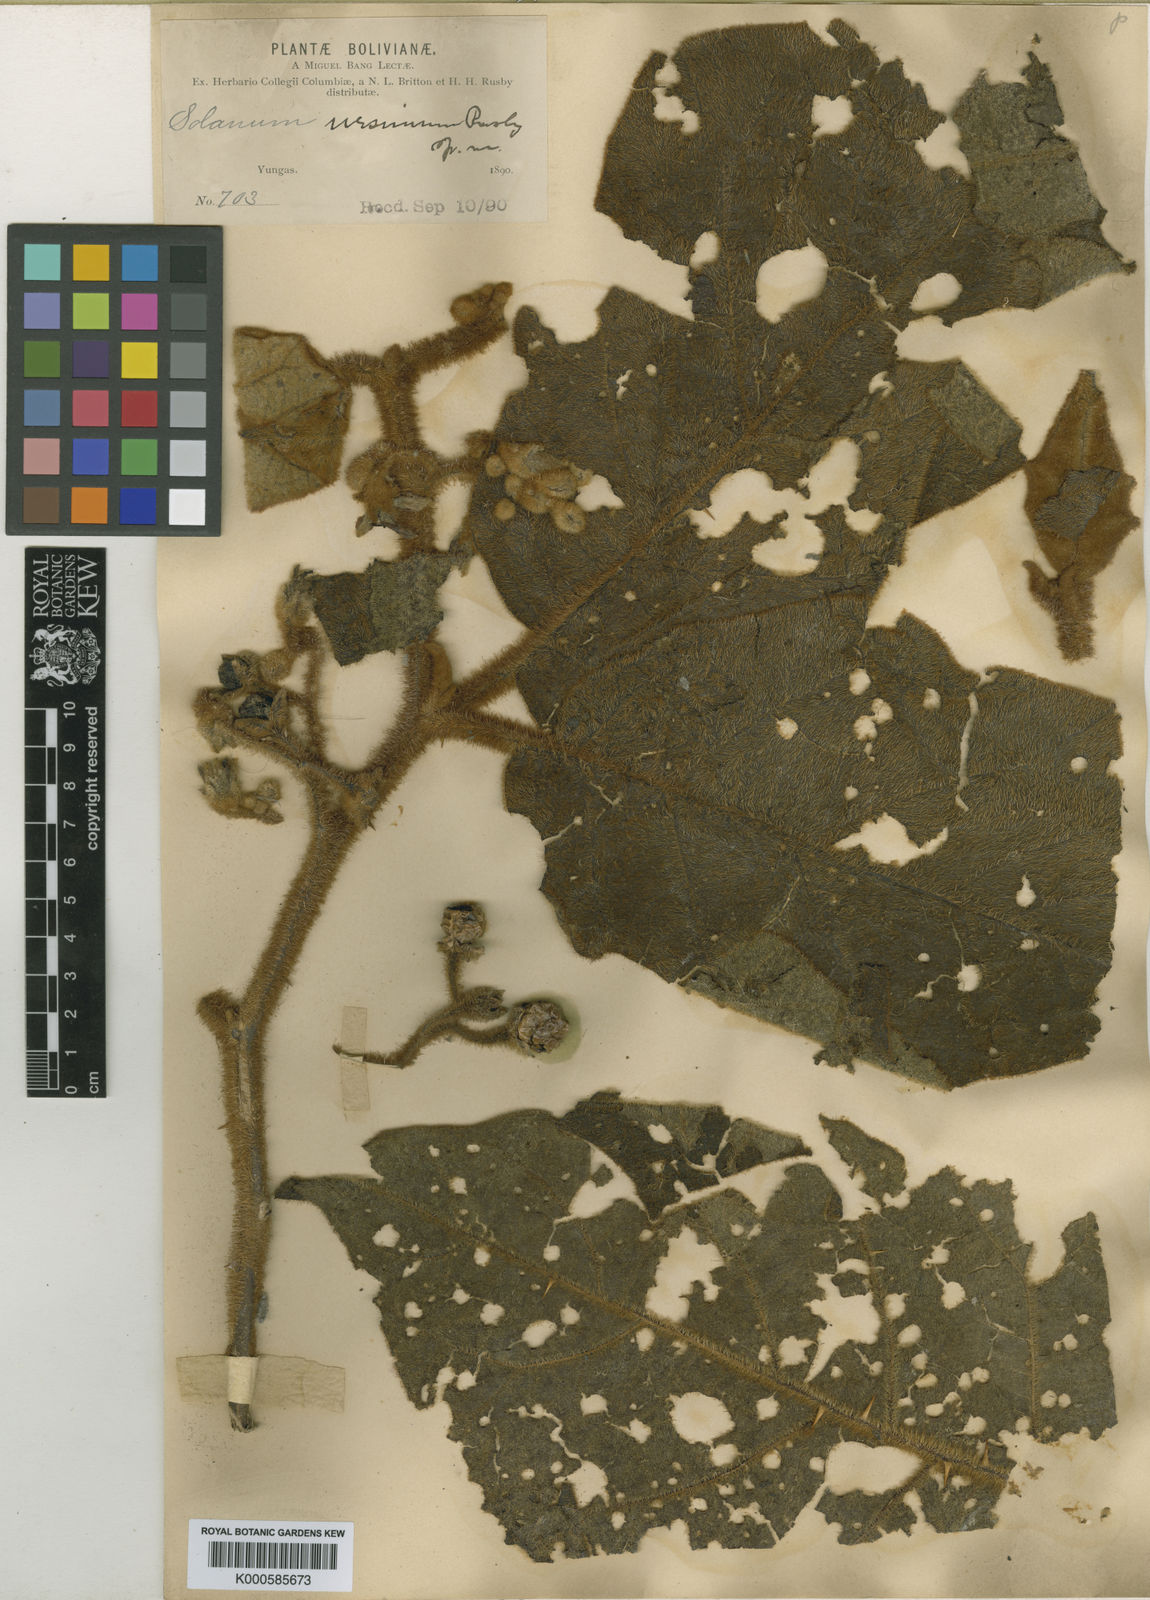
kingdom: Plantae
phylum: Tracheophyta
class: Magnoliopsida
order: Solanales
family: Solanaceae
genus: Solanum
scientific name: Solanum ursinum
